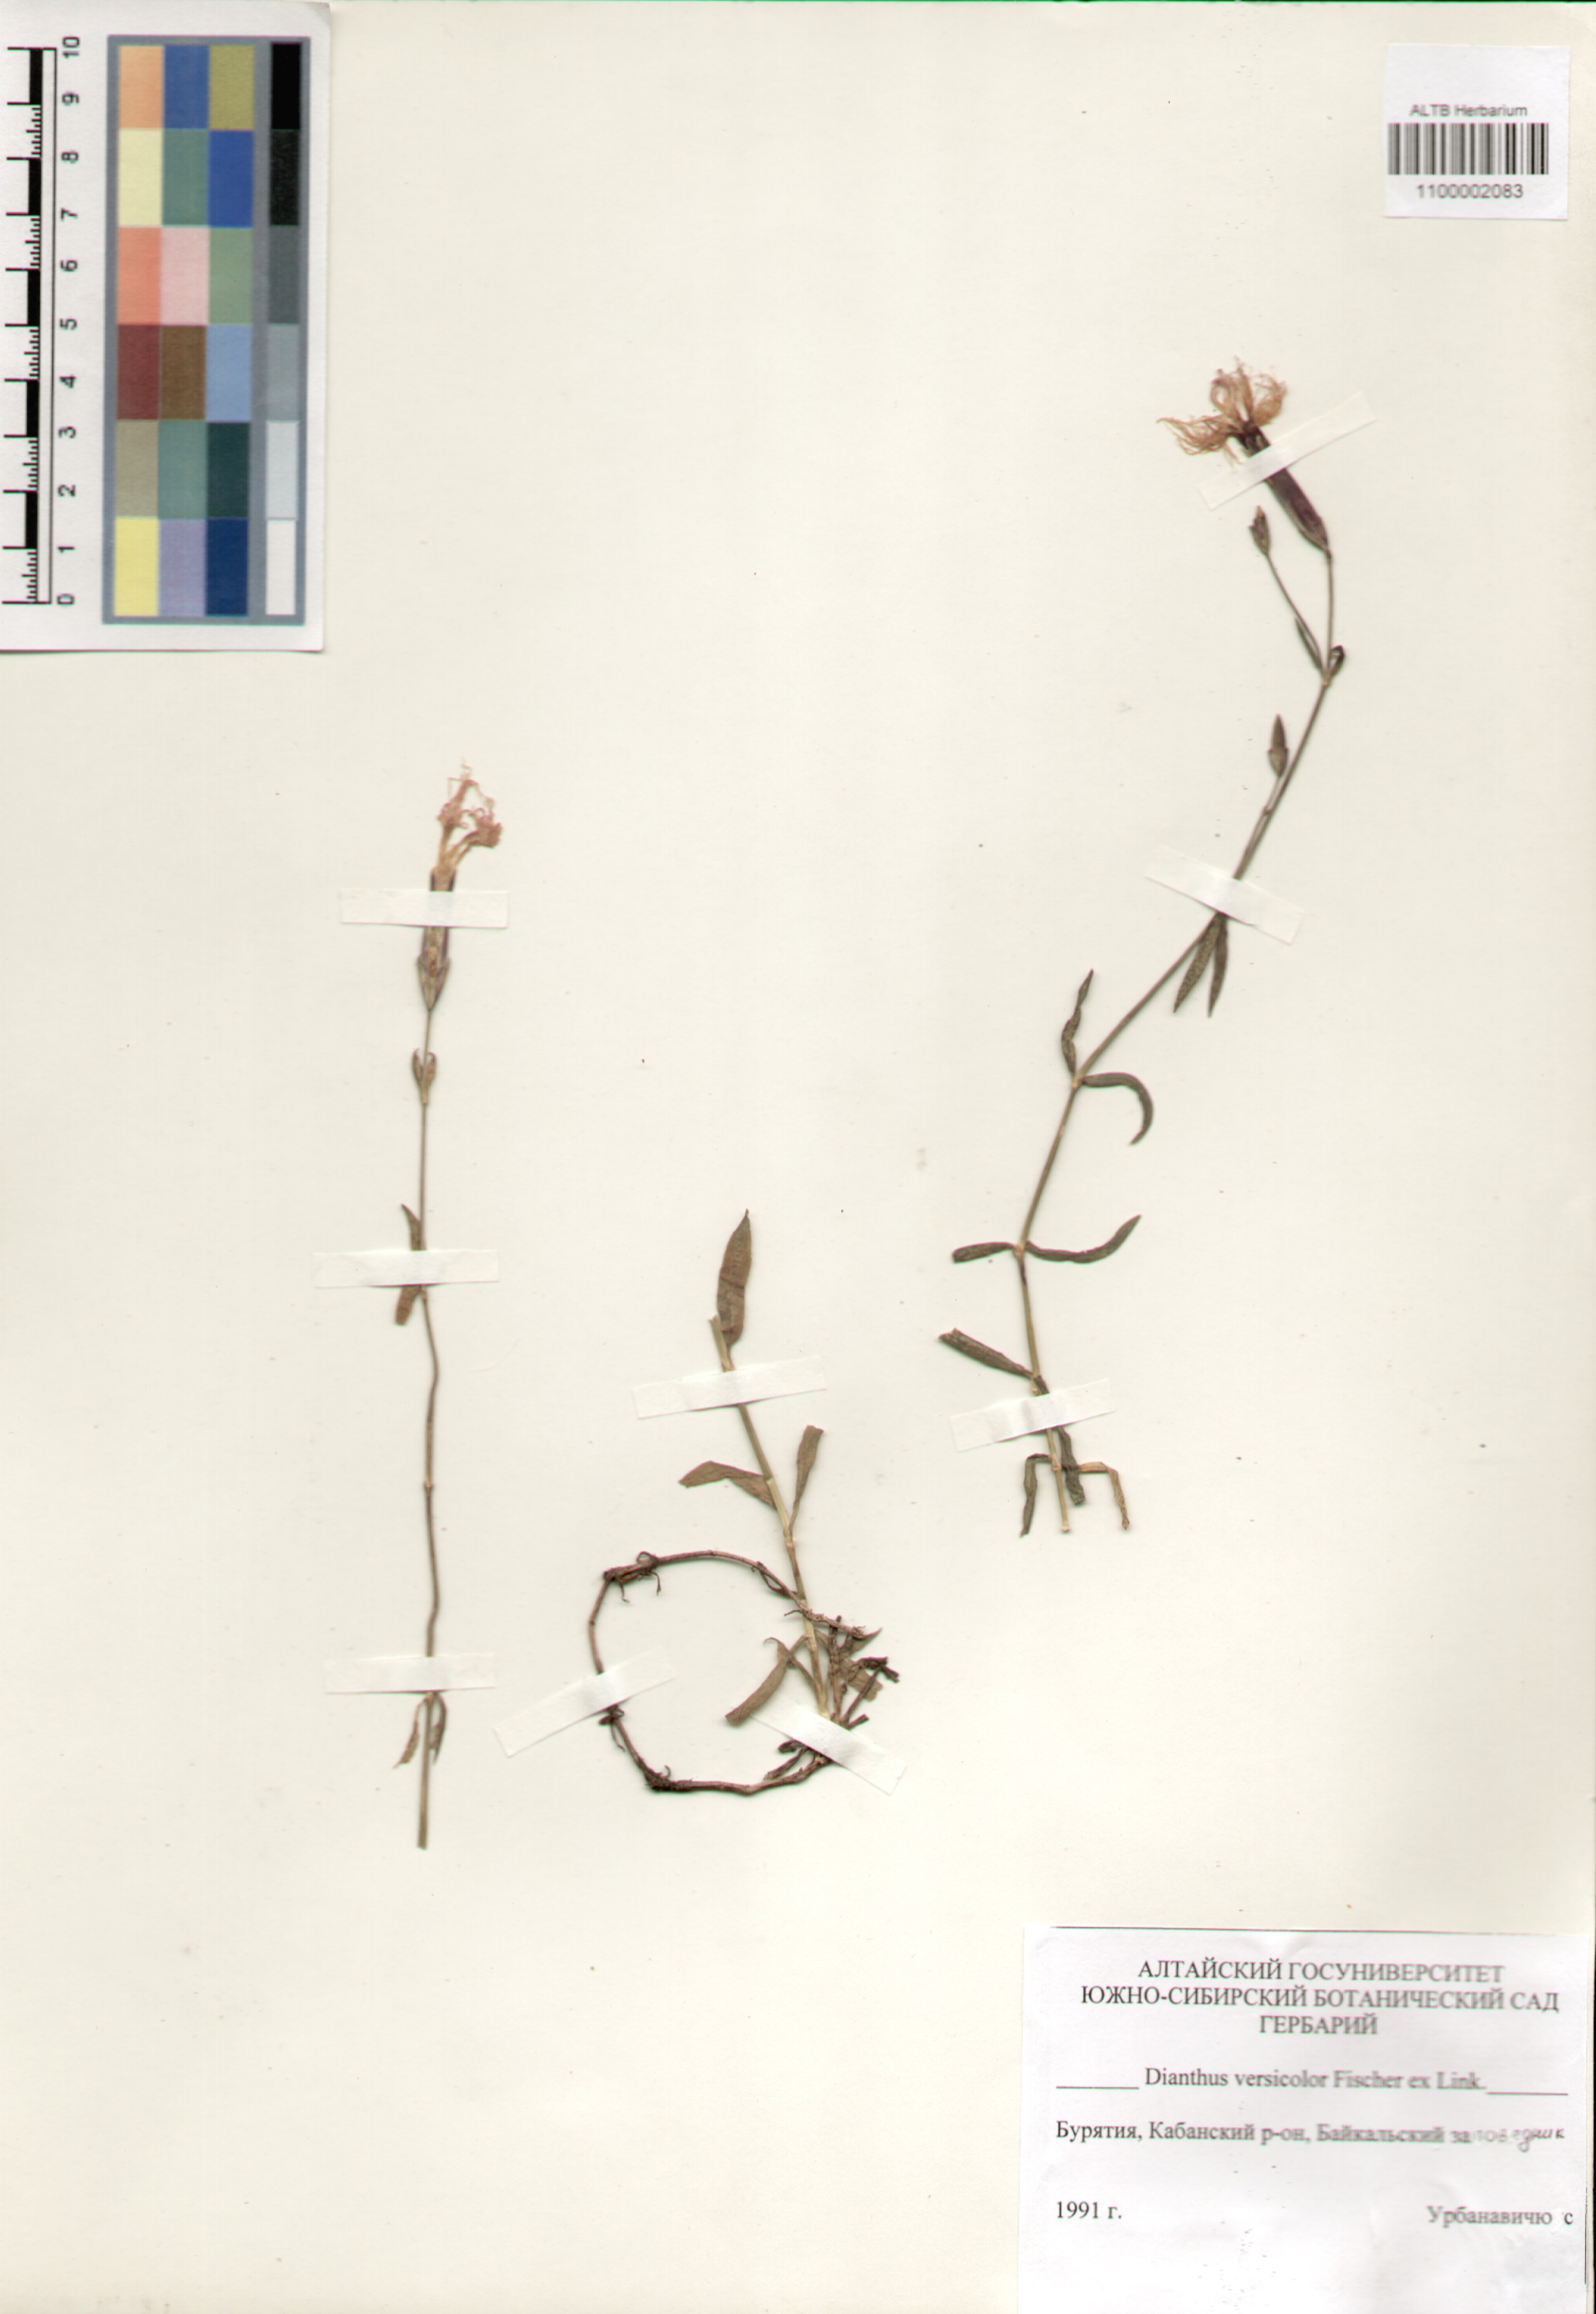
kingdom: Plantae
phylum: Tracheophyta
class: Magnoliopsida
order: Caryophyllales
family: Caryophyllaceae
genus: Dianthus
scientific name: Dianthus superbus
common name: Fringed pink
